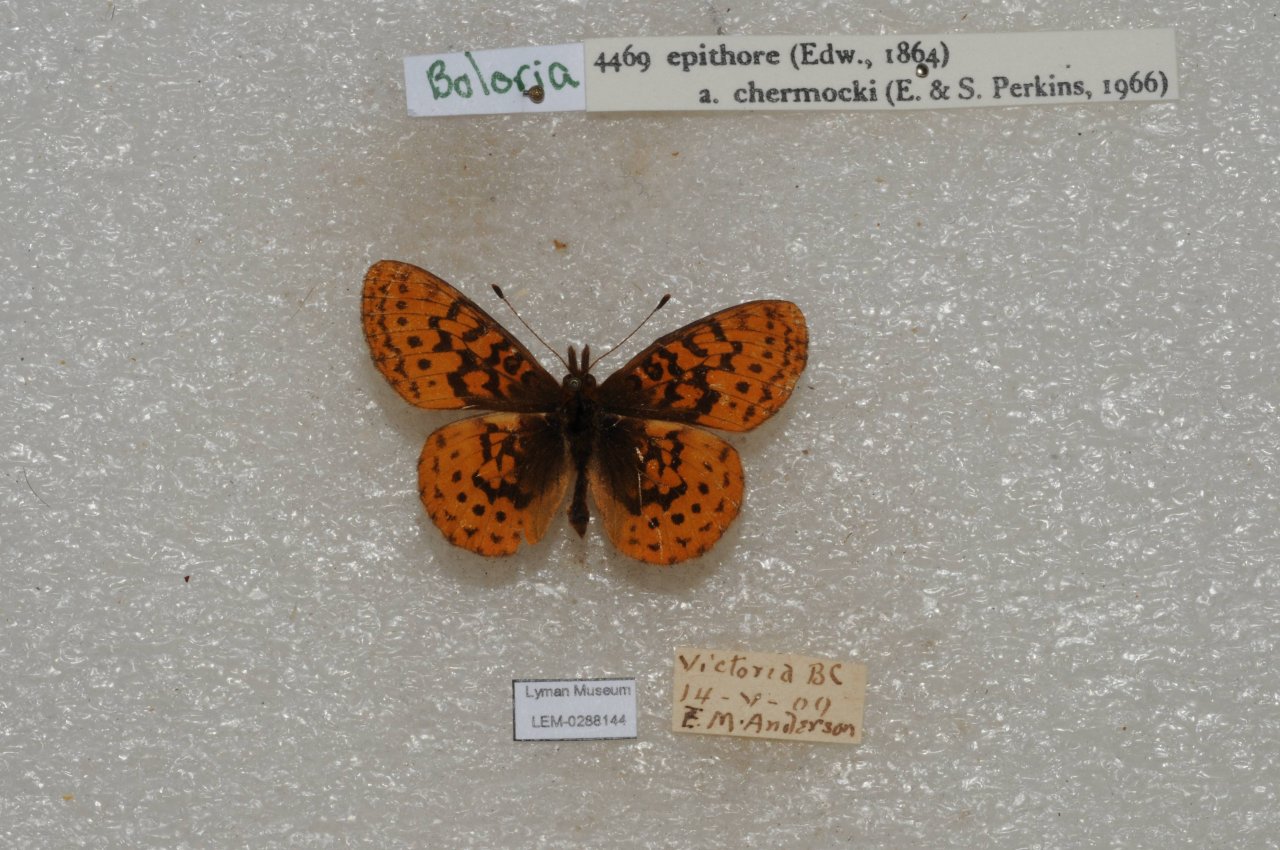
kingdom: Animalia
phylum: Arthropoda
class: Insecta
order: Lepidoptera
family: Nymphalidae
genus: Boloria
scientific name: Boloria epithore
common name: Pacific Fritillary
